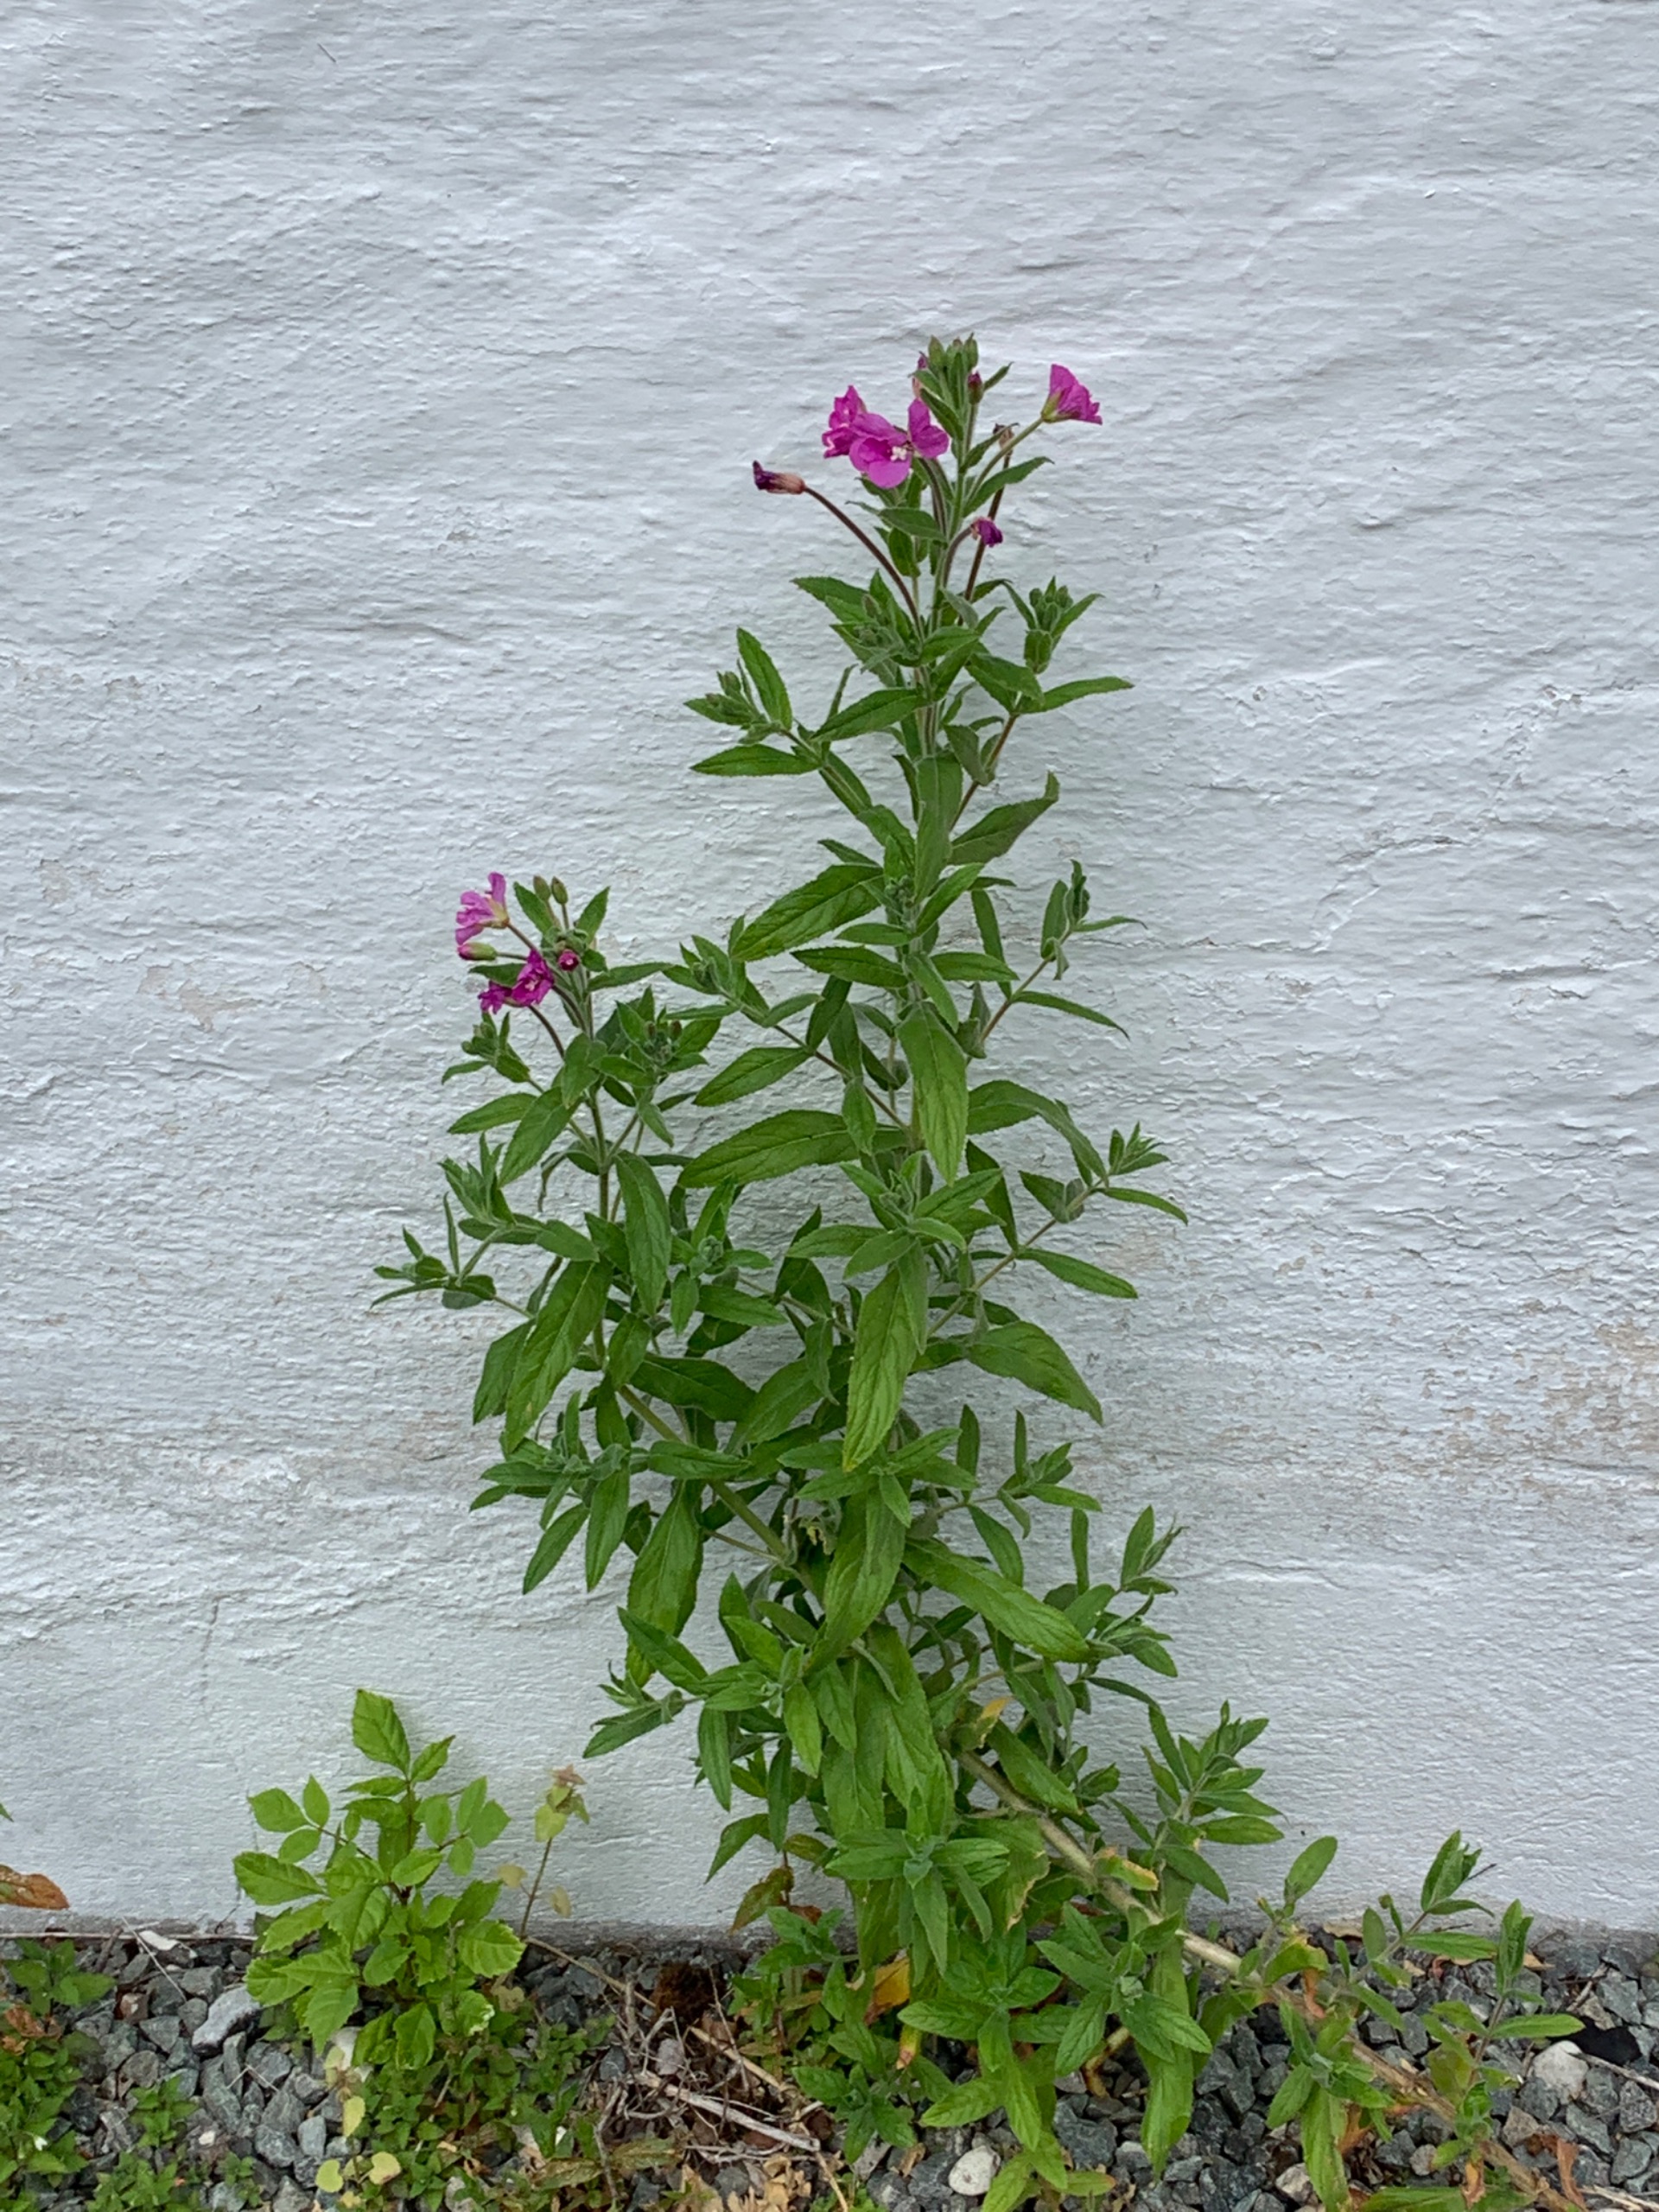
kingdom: Plantae
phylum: Tracheophyta
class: Magnoliopsida
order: Myrtales
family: Onagraceae
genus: Epilobium
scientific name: Epilobium hirsutum
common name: Lådden dueurt
